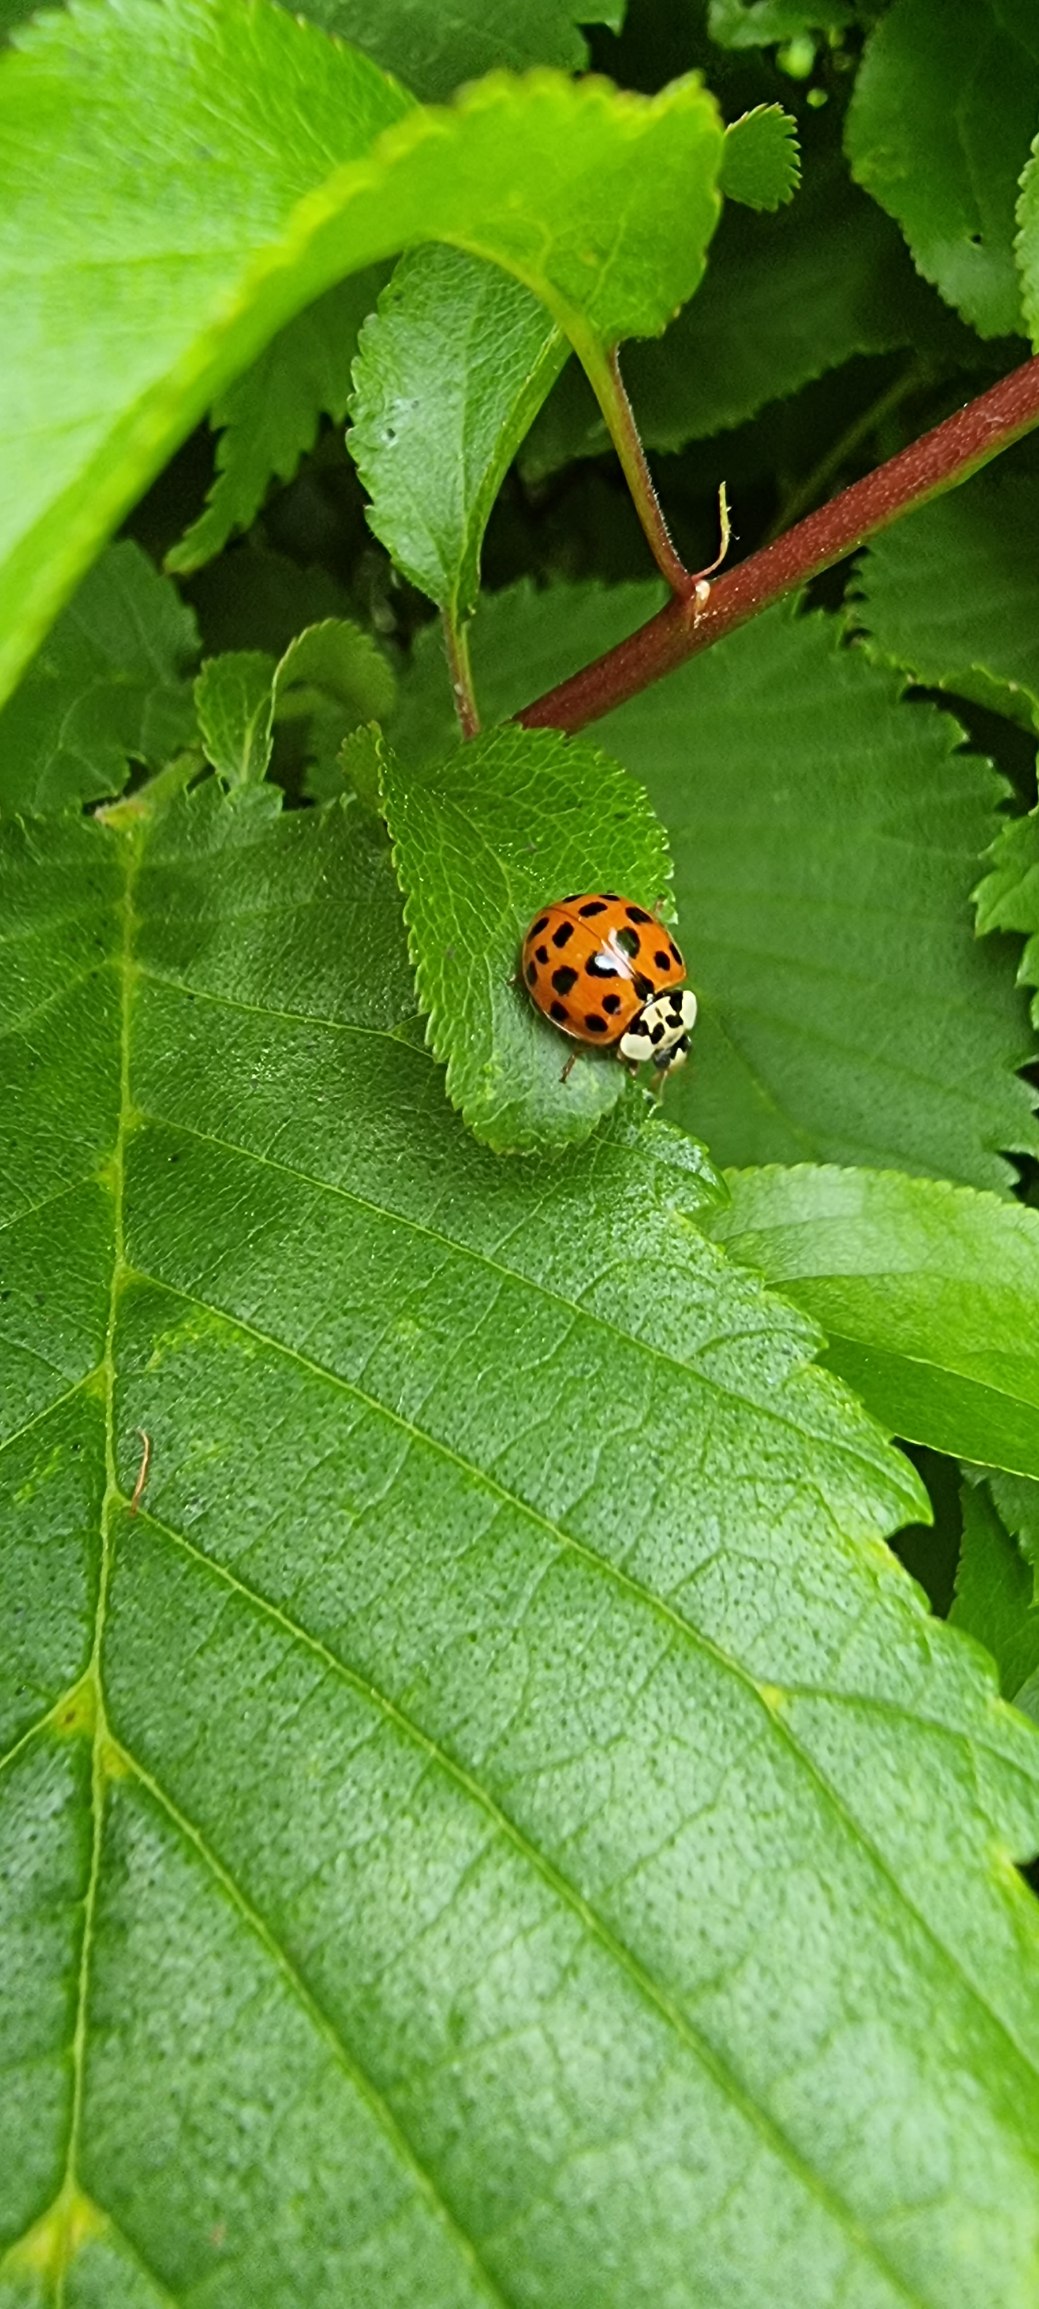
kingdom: Animalia
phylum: Arthropoda
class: Insecta
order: Coleoptera
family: Coccinellidae
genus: Harmonia
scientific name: Harmonia axyridis
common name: Harlekinmariehøne
